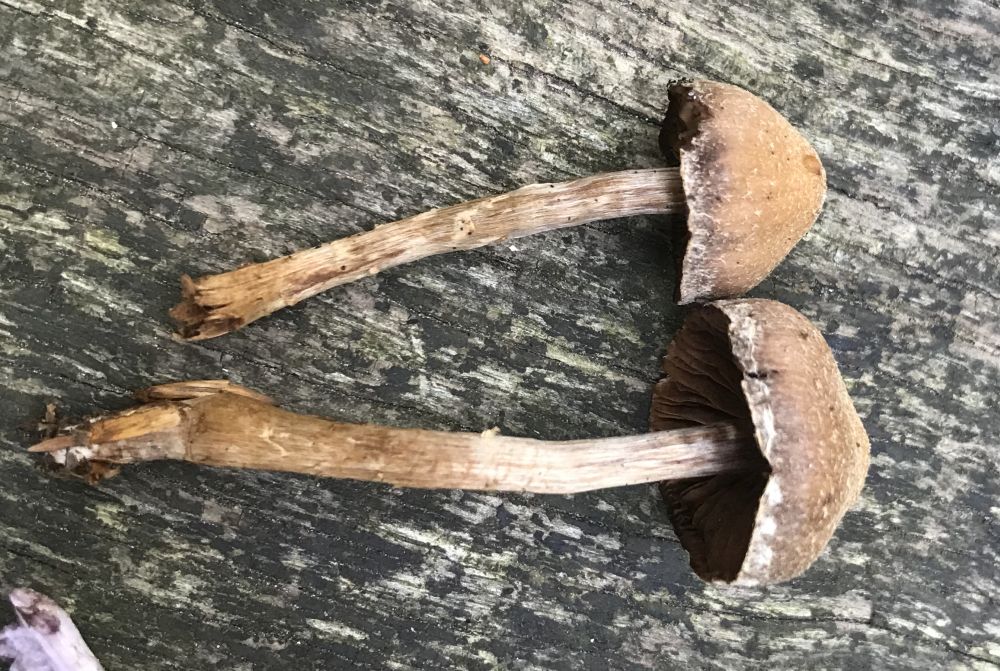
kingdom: Fungi
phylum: Basidiomycota
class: Agaricomycetes
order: Agaricales
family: Cortinariaceae
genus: Cortinarius
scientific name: Cortinarius
